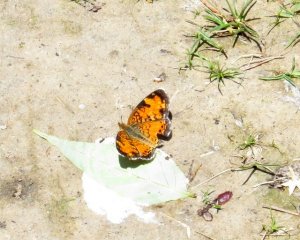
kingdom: Animalia
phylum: Arthropoda
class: Insecta
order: Lepidoptera
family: Nymphalidae
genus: Phyciodes
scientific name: Phyciodes tharos
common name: Northern Crescent
